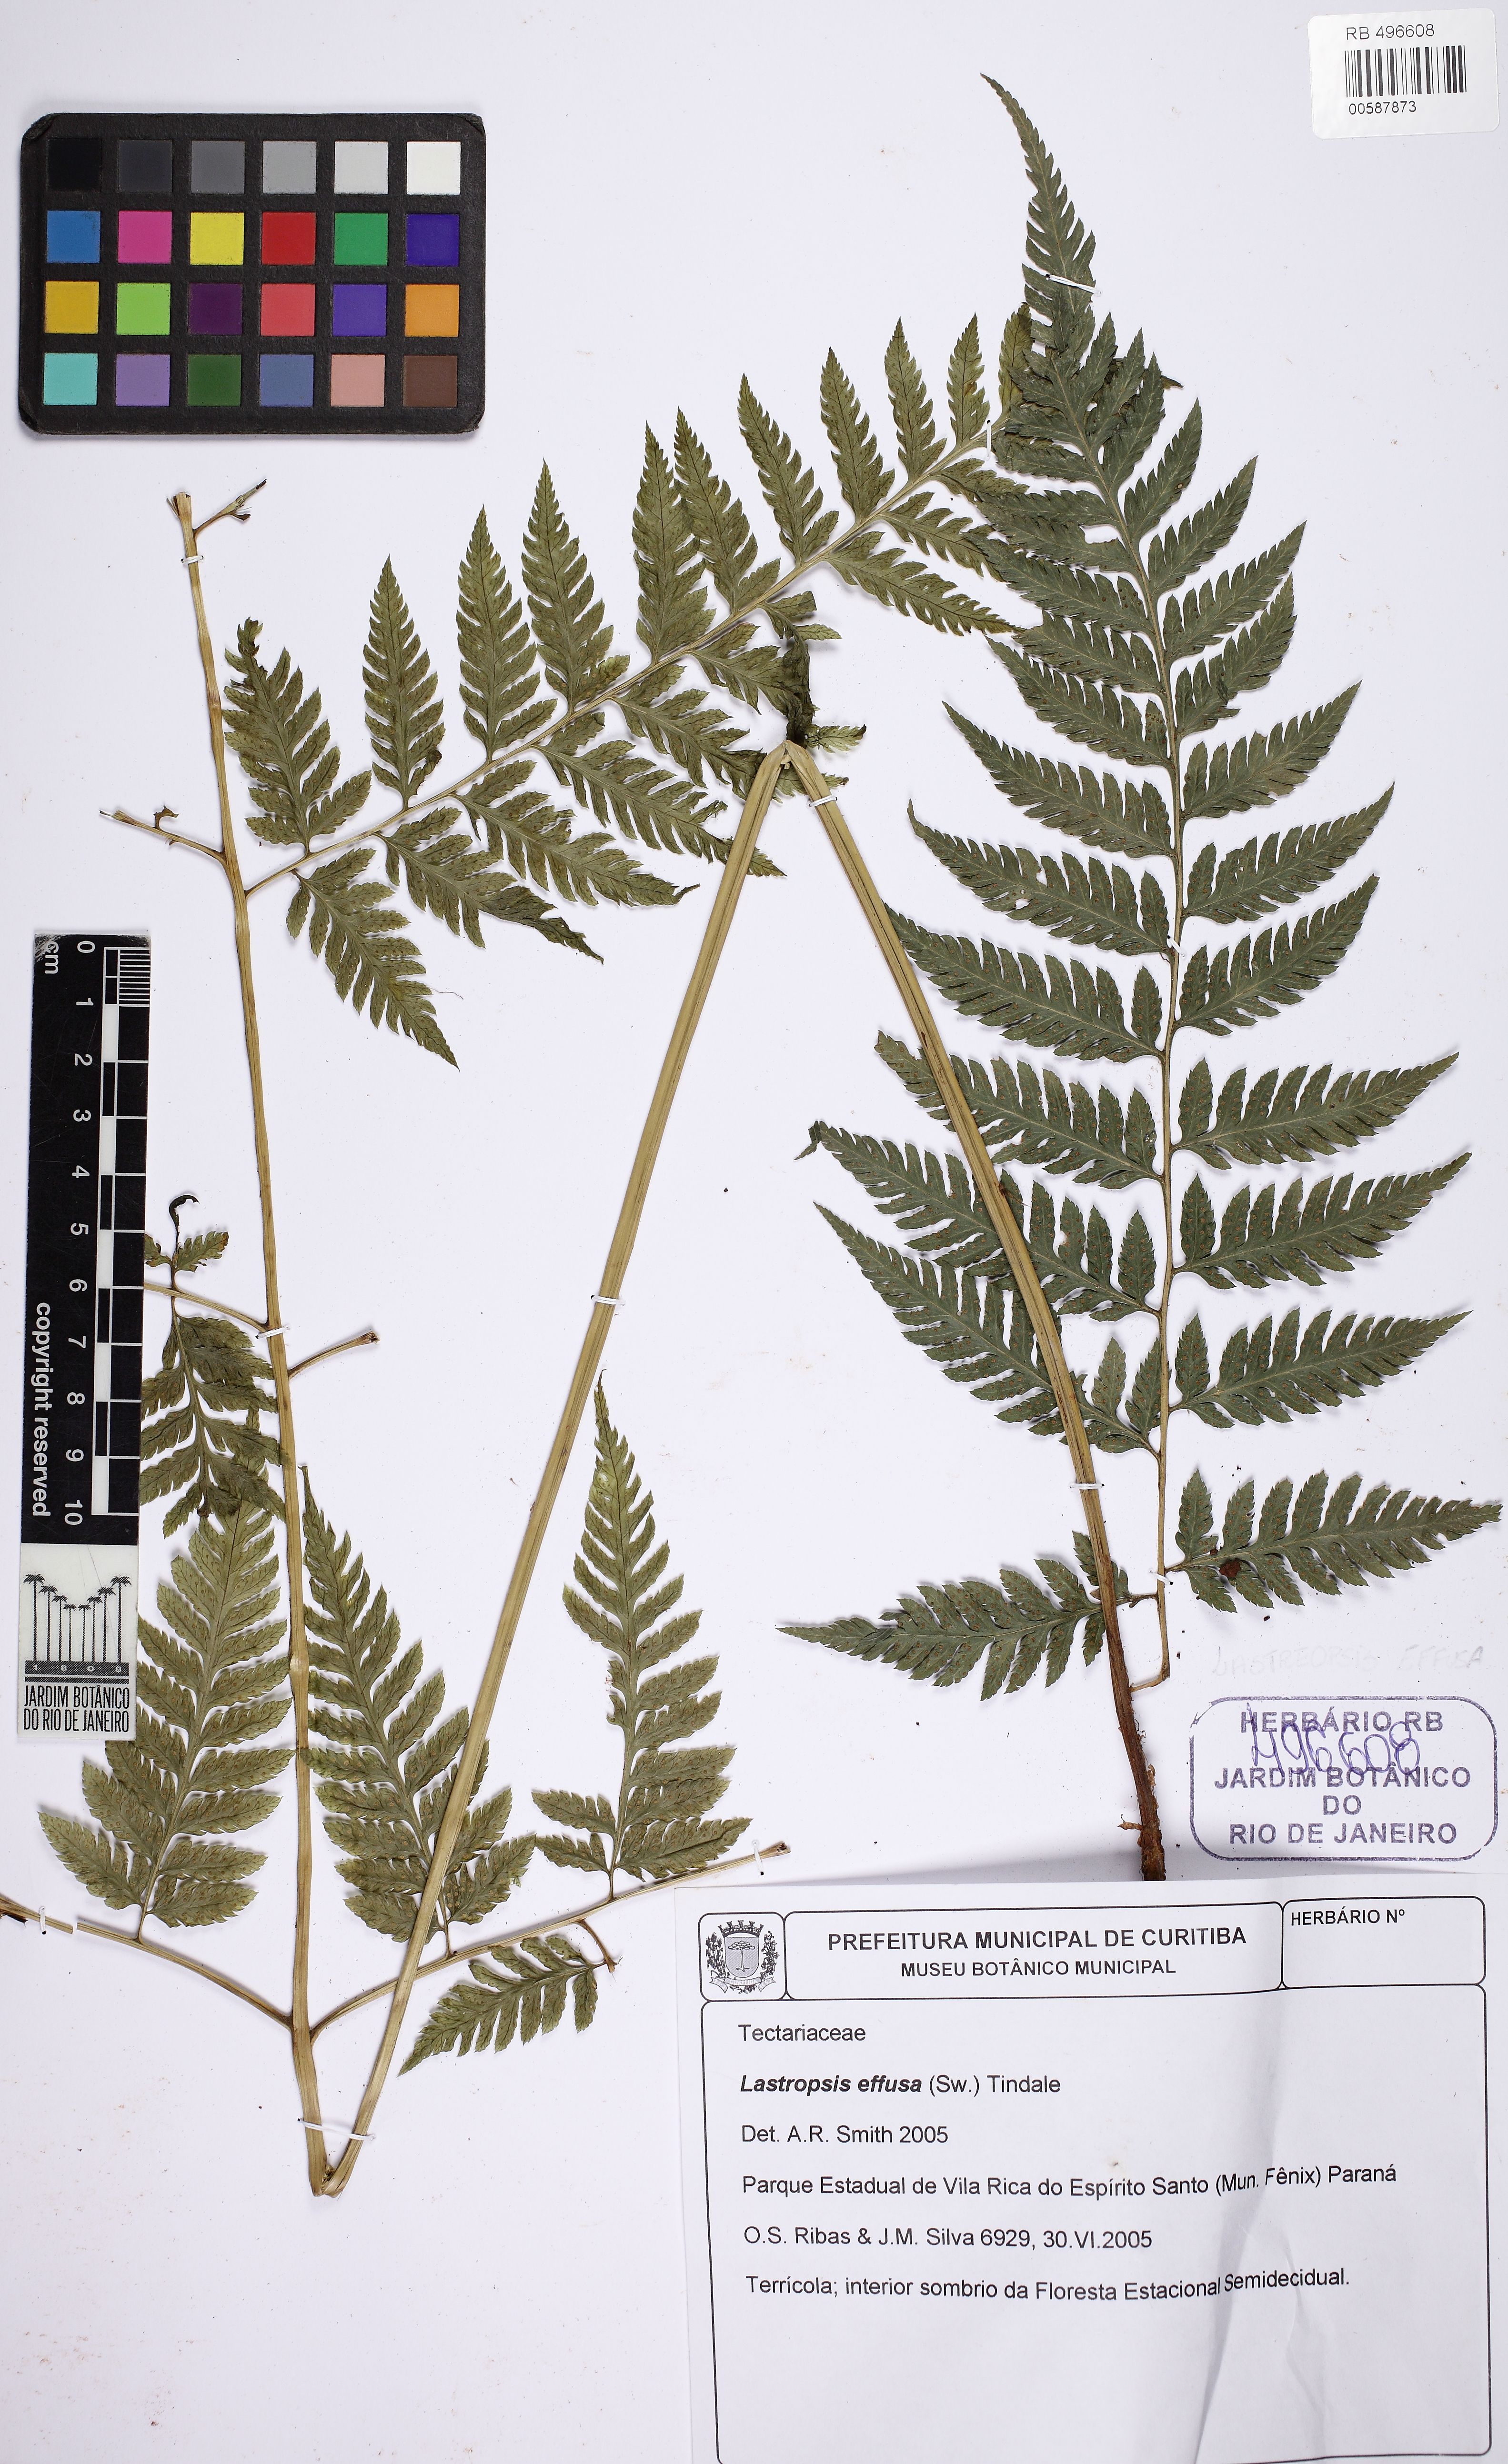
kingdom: Plantae
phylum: Tracheophyta
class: Polypodiopsida
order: Polypodiales
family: Dryopteridaceae
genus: Parapolystichum
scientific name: Parapolystichum effusum
